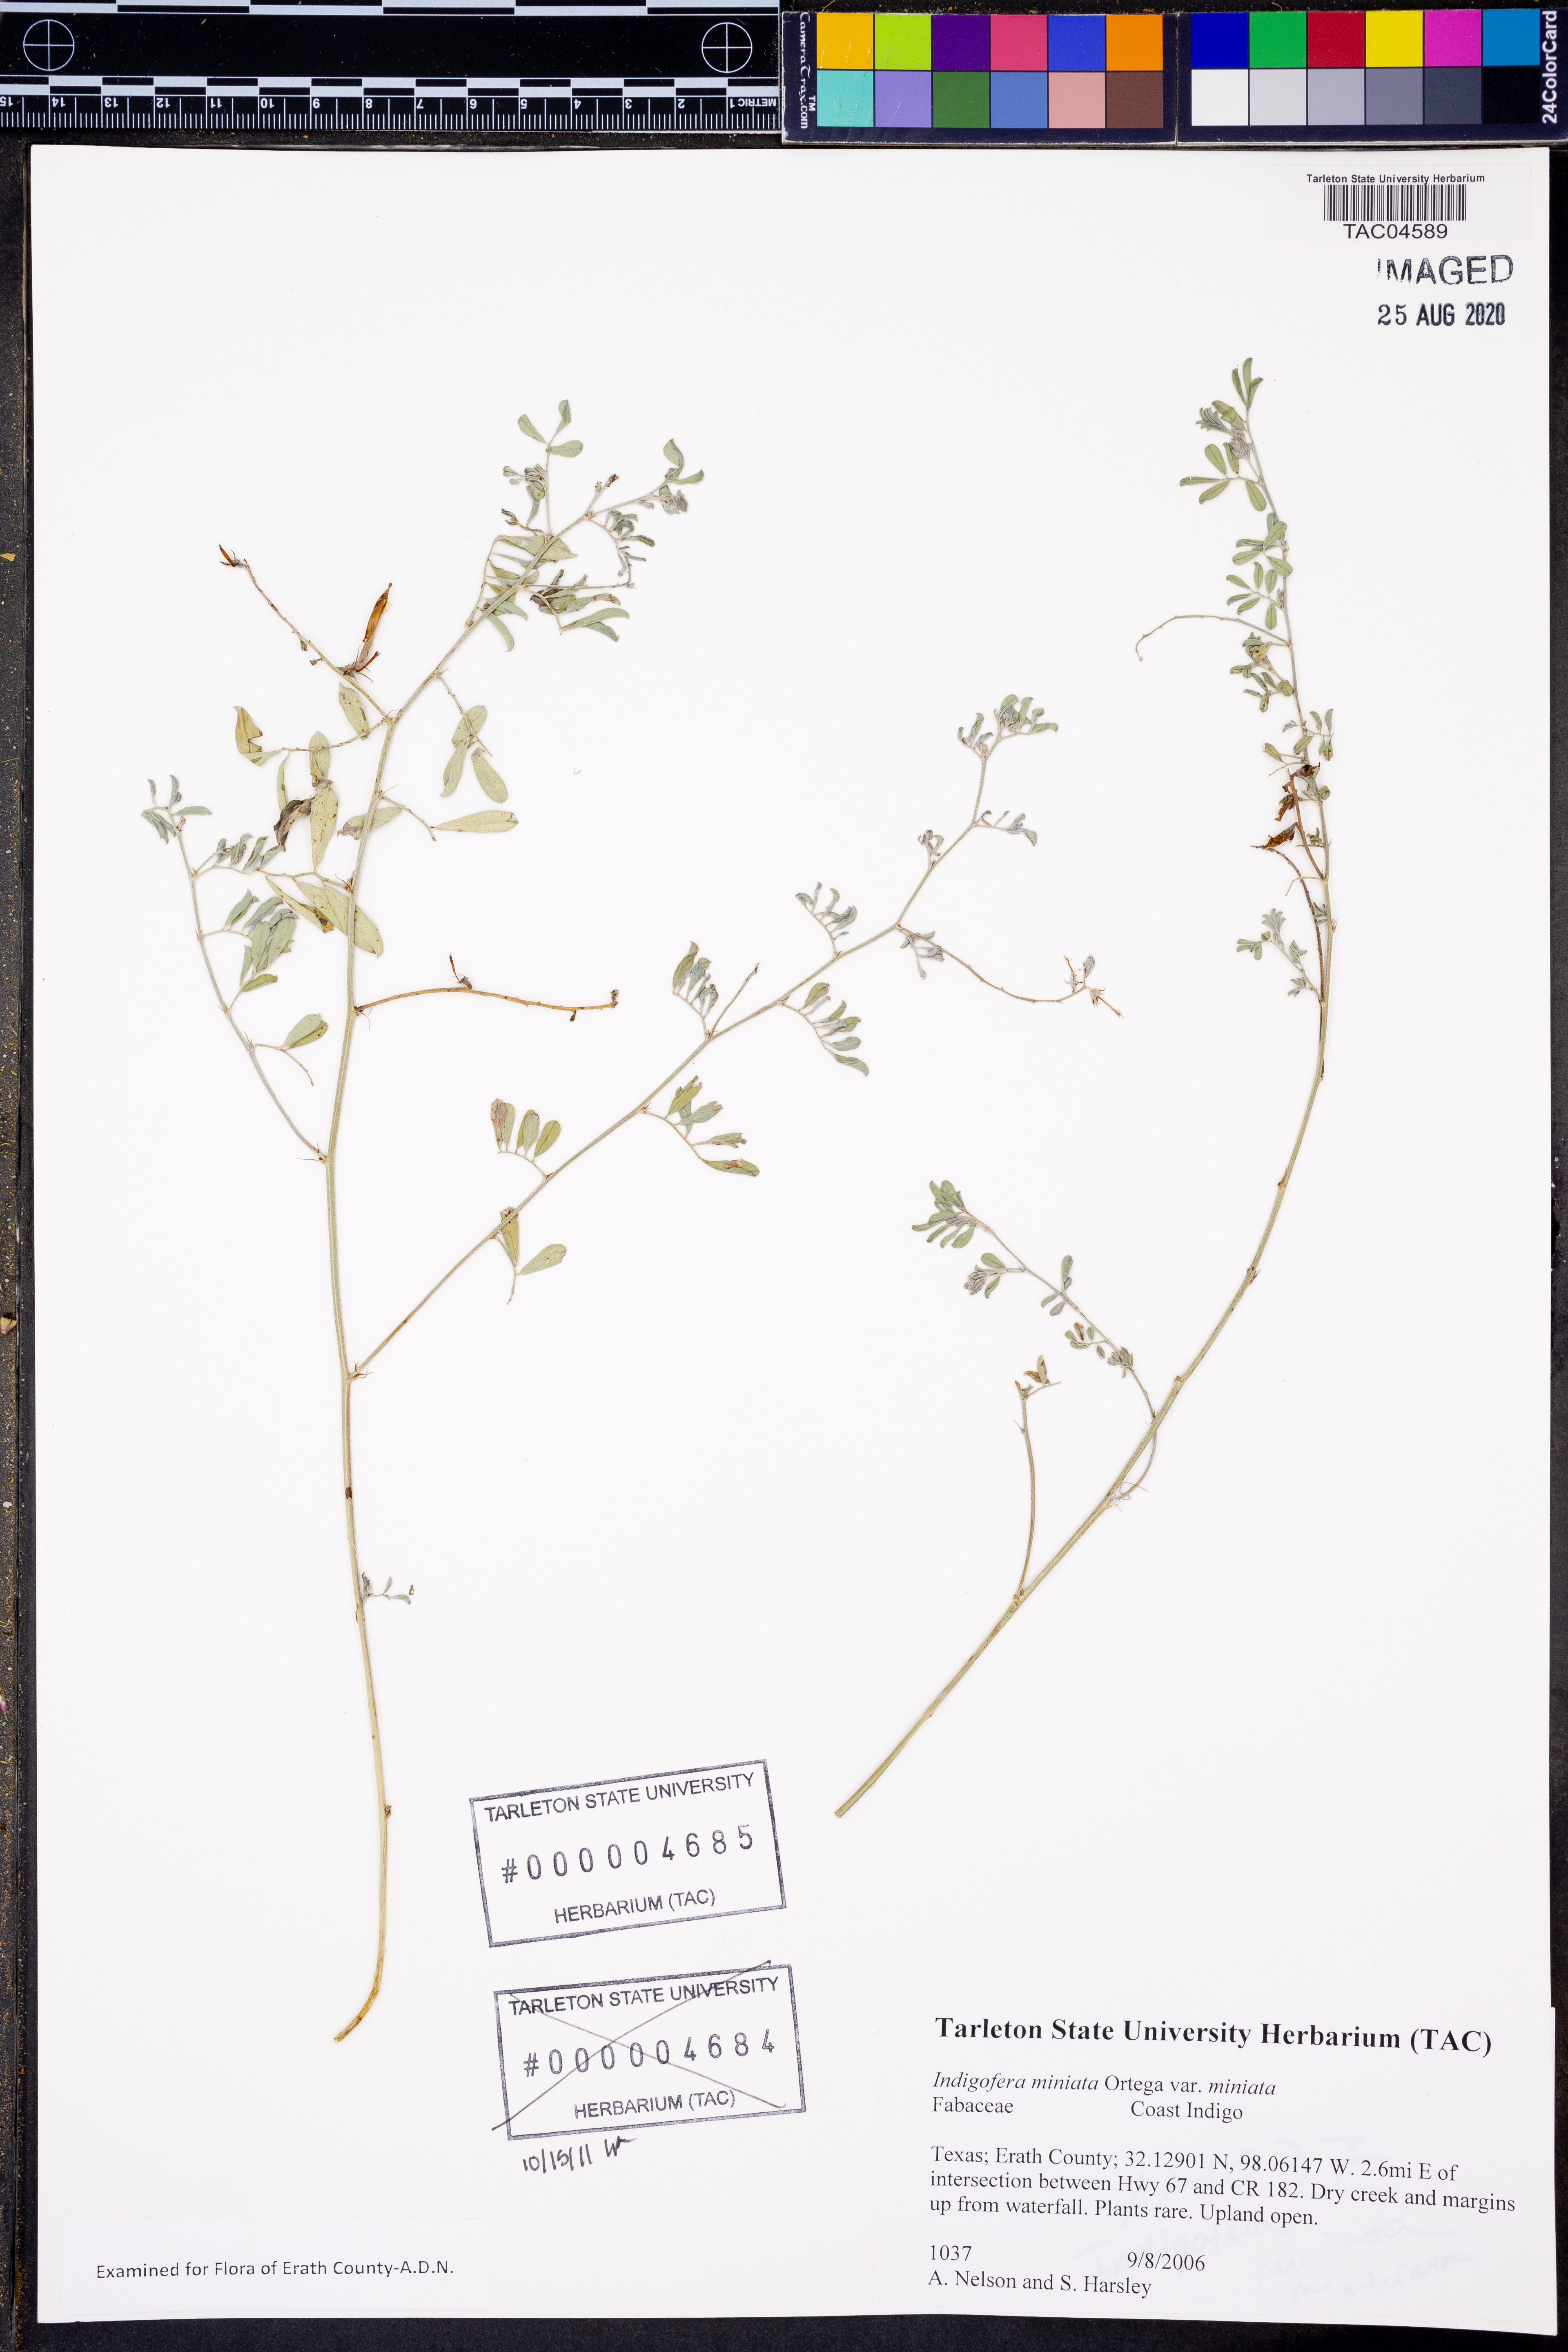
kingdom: Plantae
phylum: Tracheophyta
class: Magnoliopsida
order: Fabales
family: Fabaceae
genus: Indigofera
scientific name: Indigofera miniata
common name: Coast indigo
